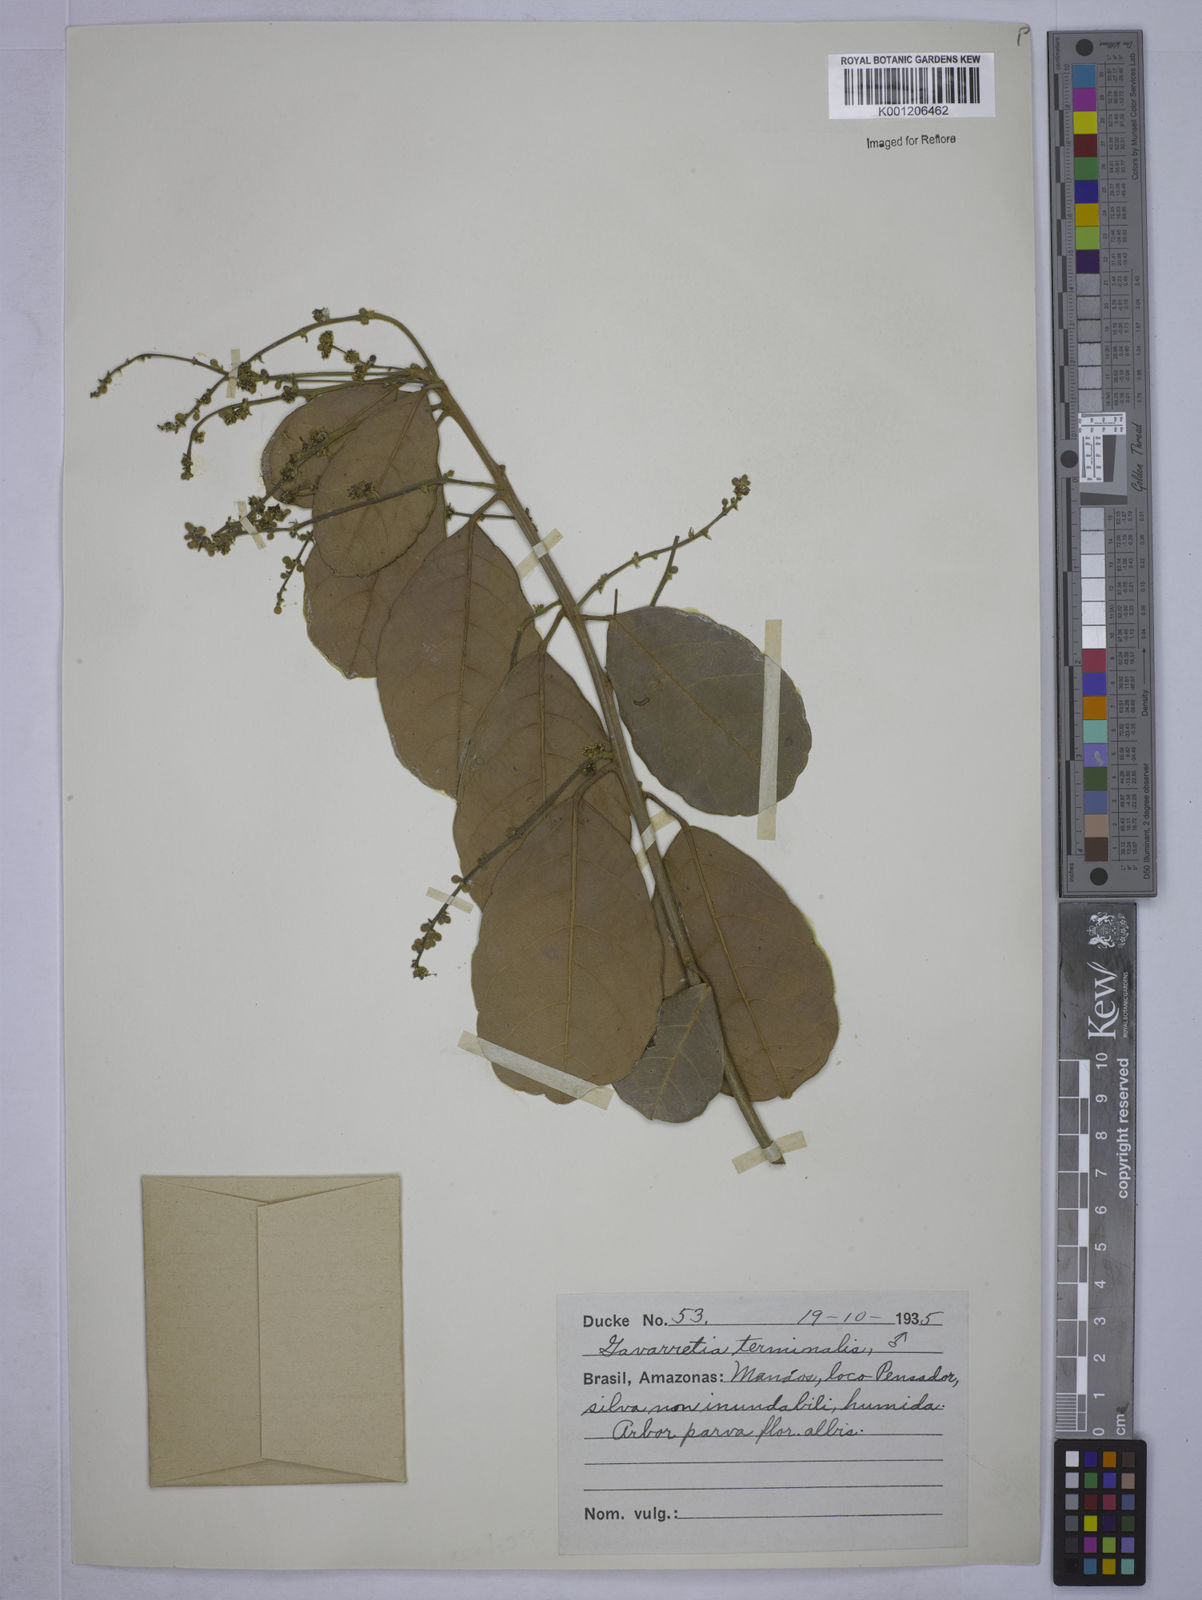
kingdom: Plantae
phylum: Tracheophyta
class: Magnoliopsida
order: Malpighiales
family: Euphorbiaceae
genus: Conceveiba
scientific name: Conceveiba
